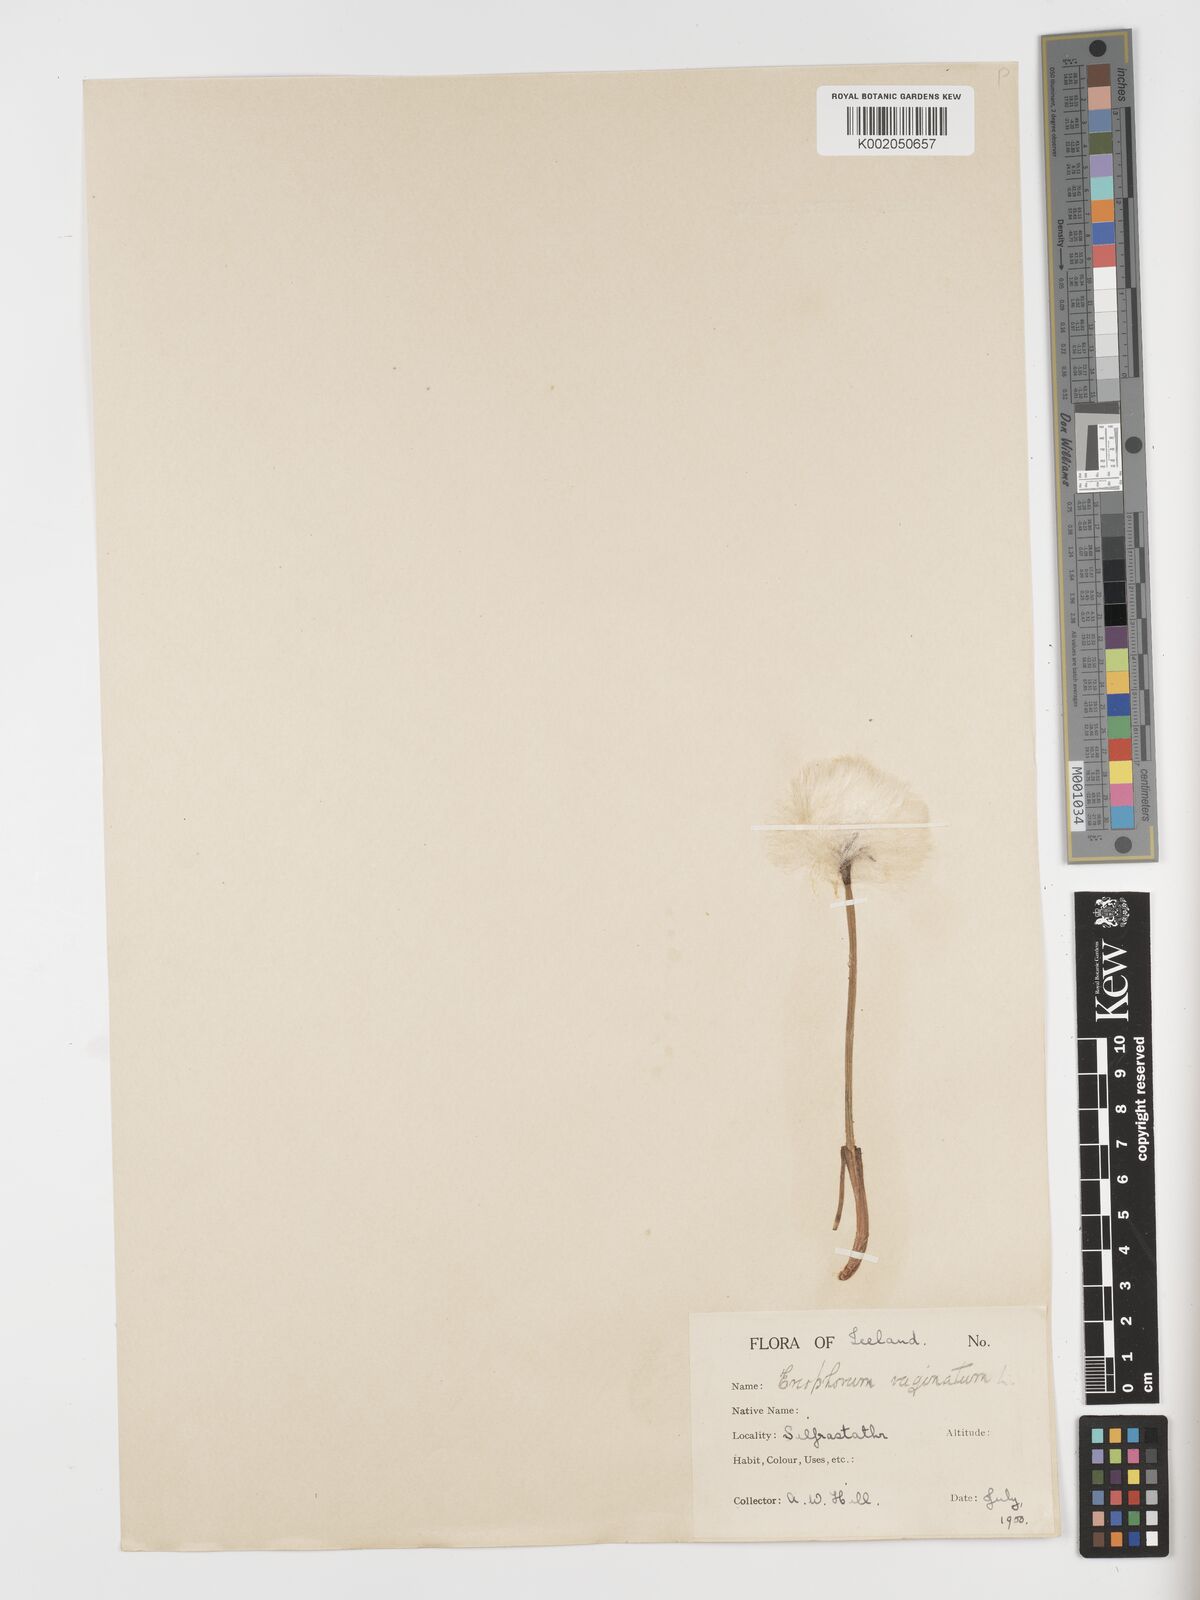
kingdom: Plantae
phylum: Tracheophyta
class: Liliopsida
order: Poales
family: Cyperaceae
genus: Eriophorum
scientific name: Eriophorum vaginatum
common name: Hare's-tail cottongrass
